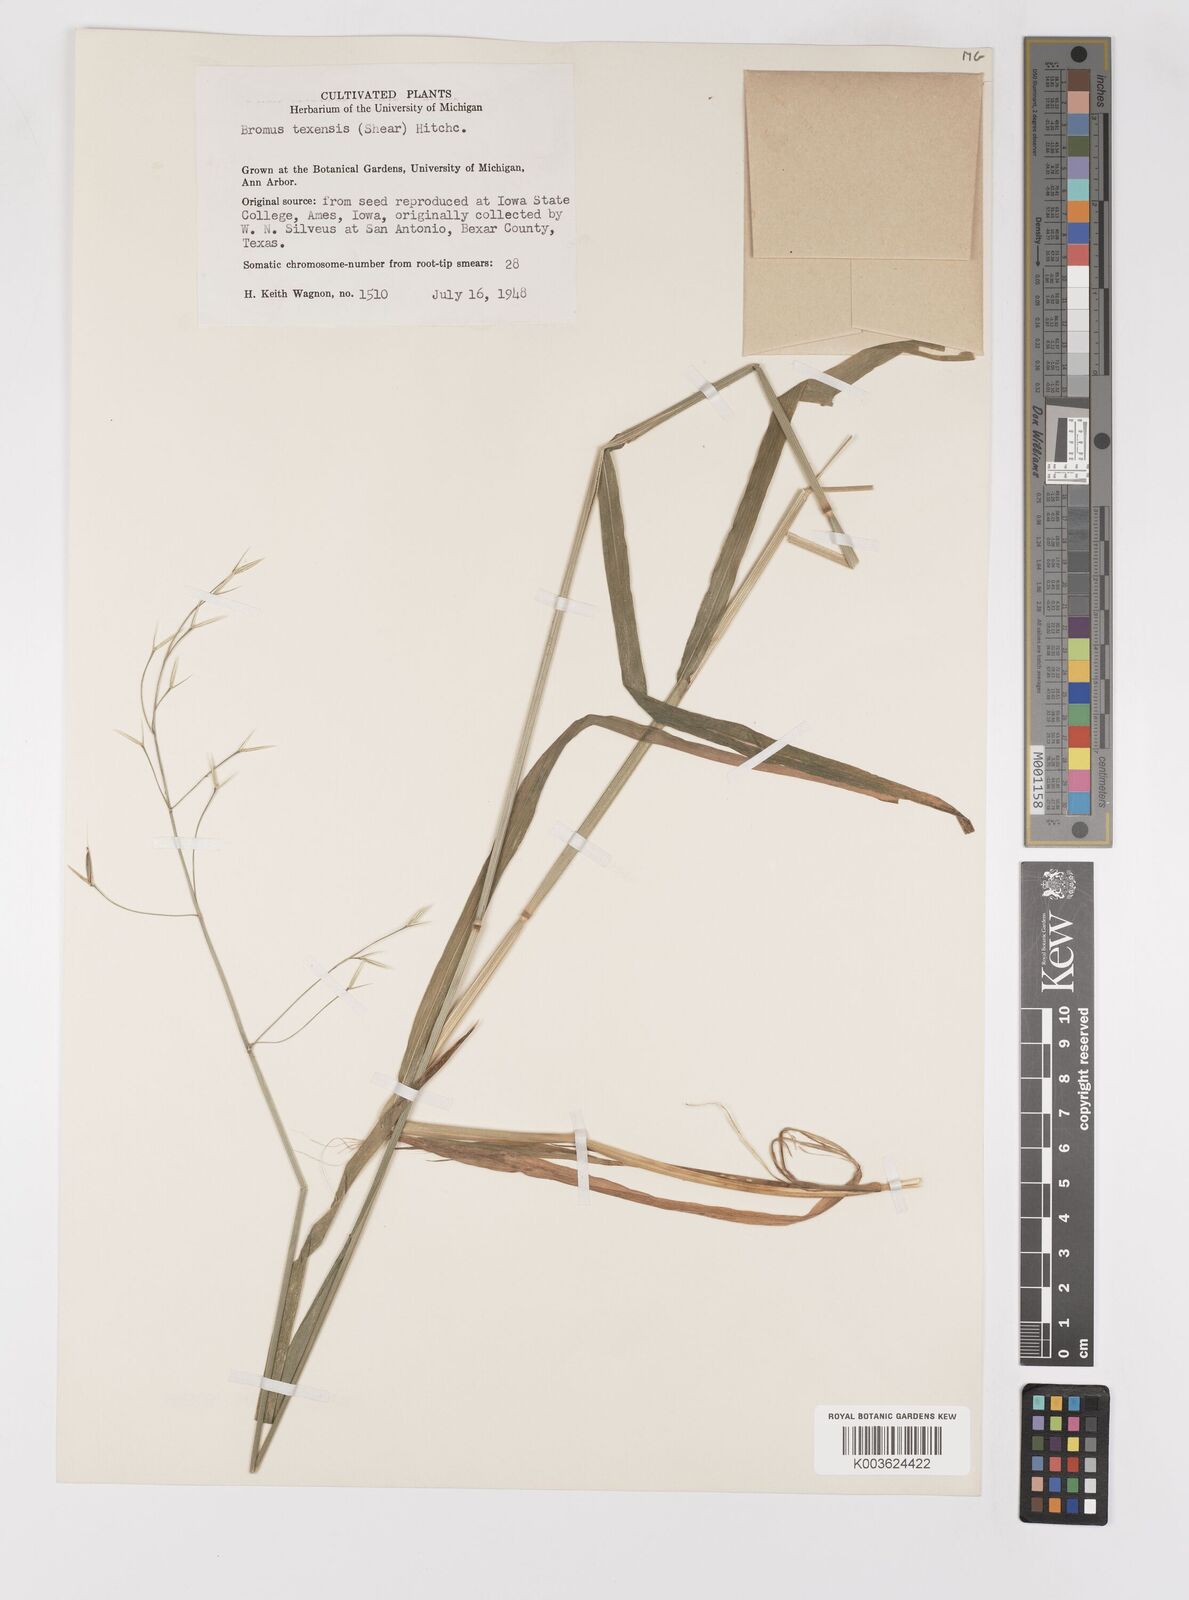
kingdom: Plantae
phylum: Tracheophyta
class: Liliopsida
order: Poales
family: Poaceae
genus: Bromus
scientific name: Bromus texensis
